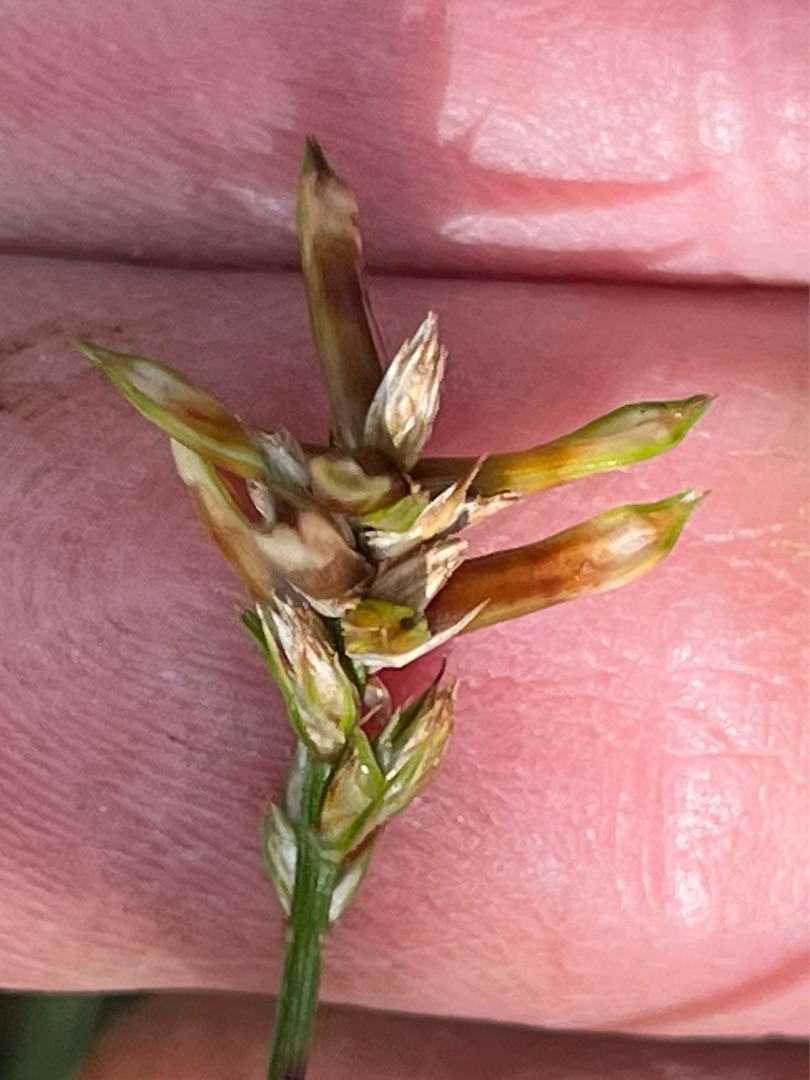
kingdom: Animalia
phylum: Arthropoda
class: Insecta
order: Diptera
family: Cecidomyiidae
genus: Wachtliella
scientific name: Wachtliella caricis
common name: Frugthylstergalmyg
